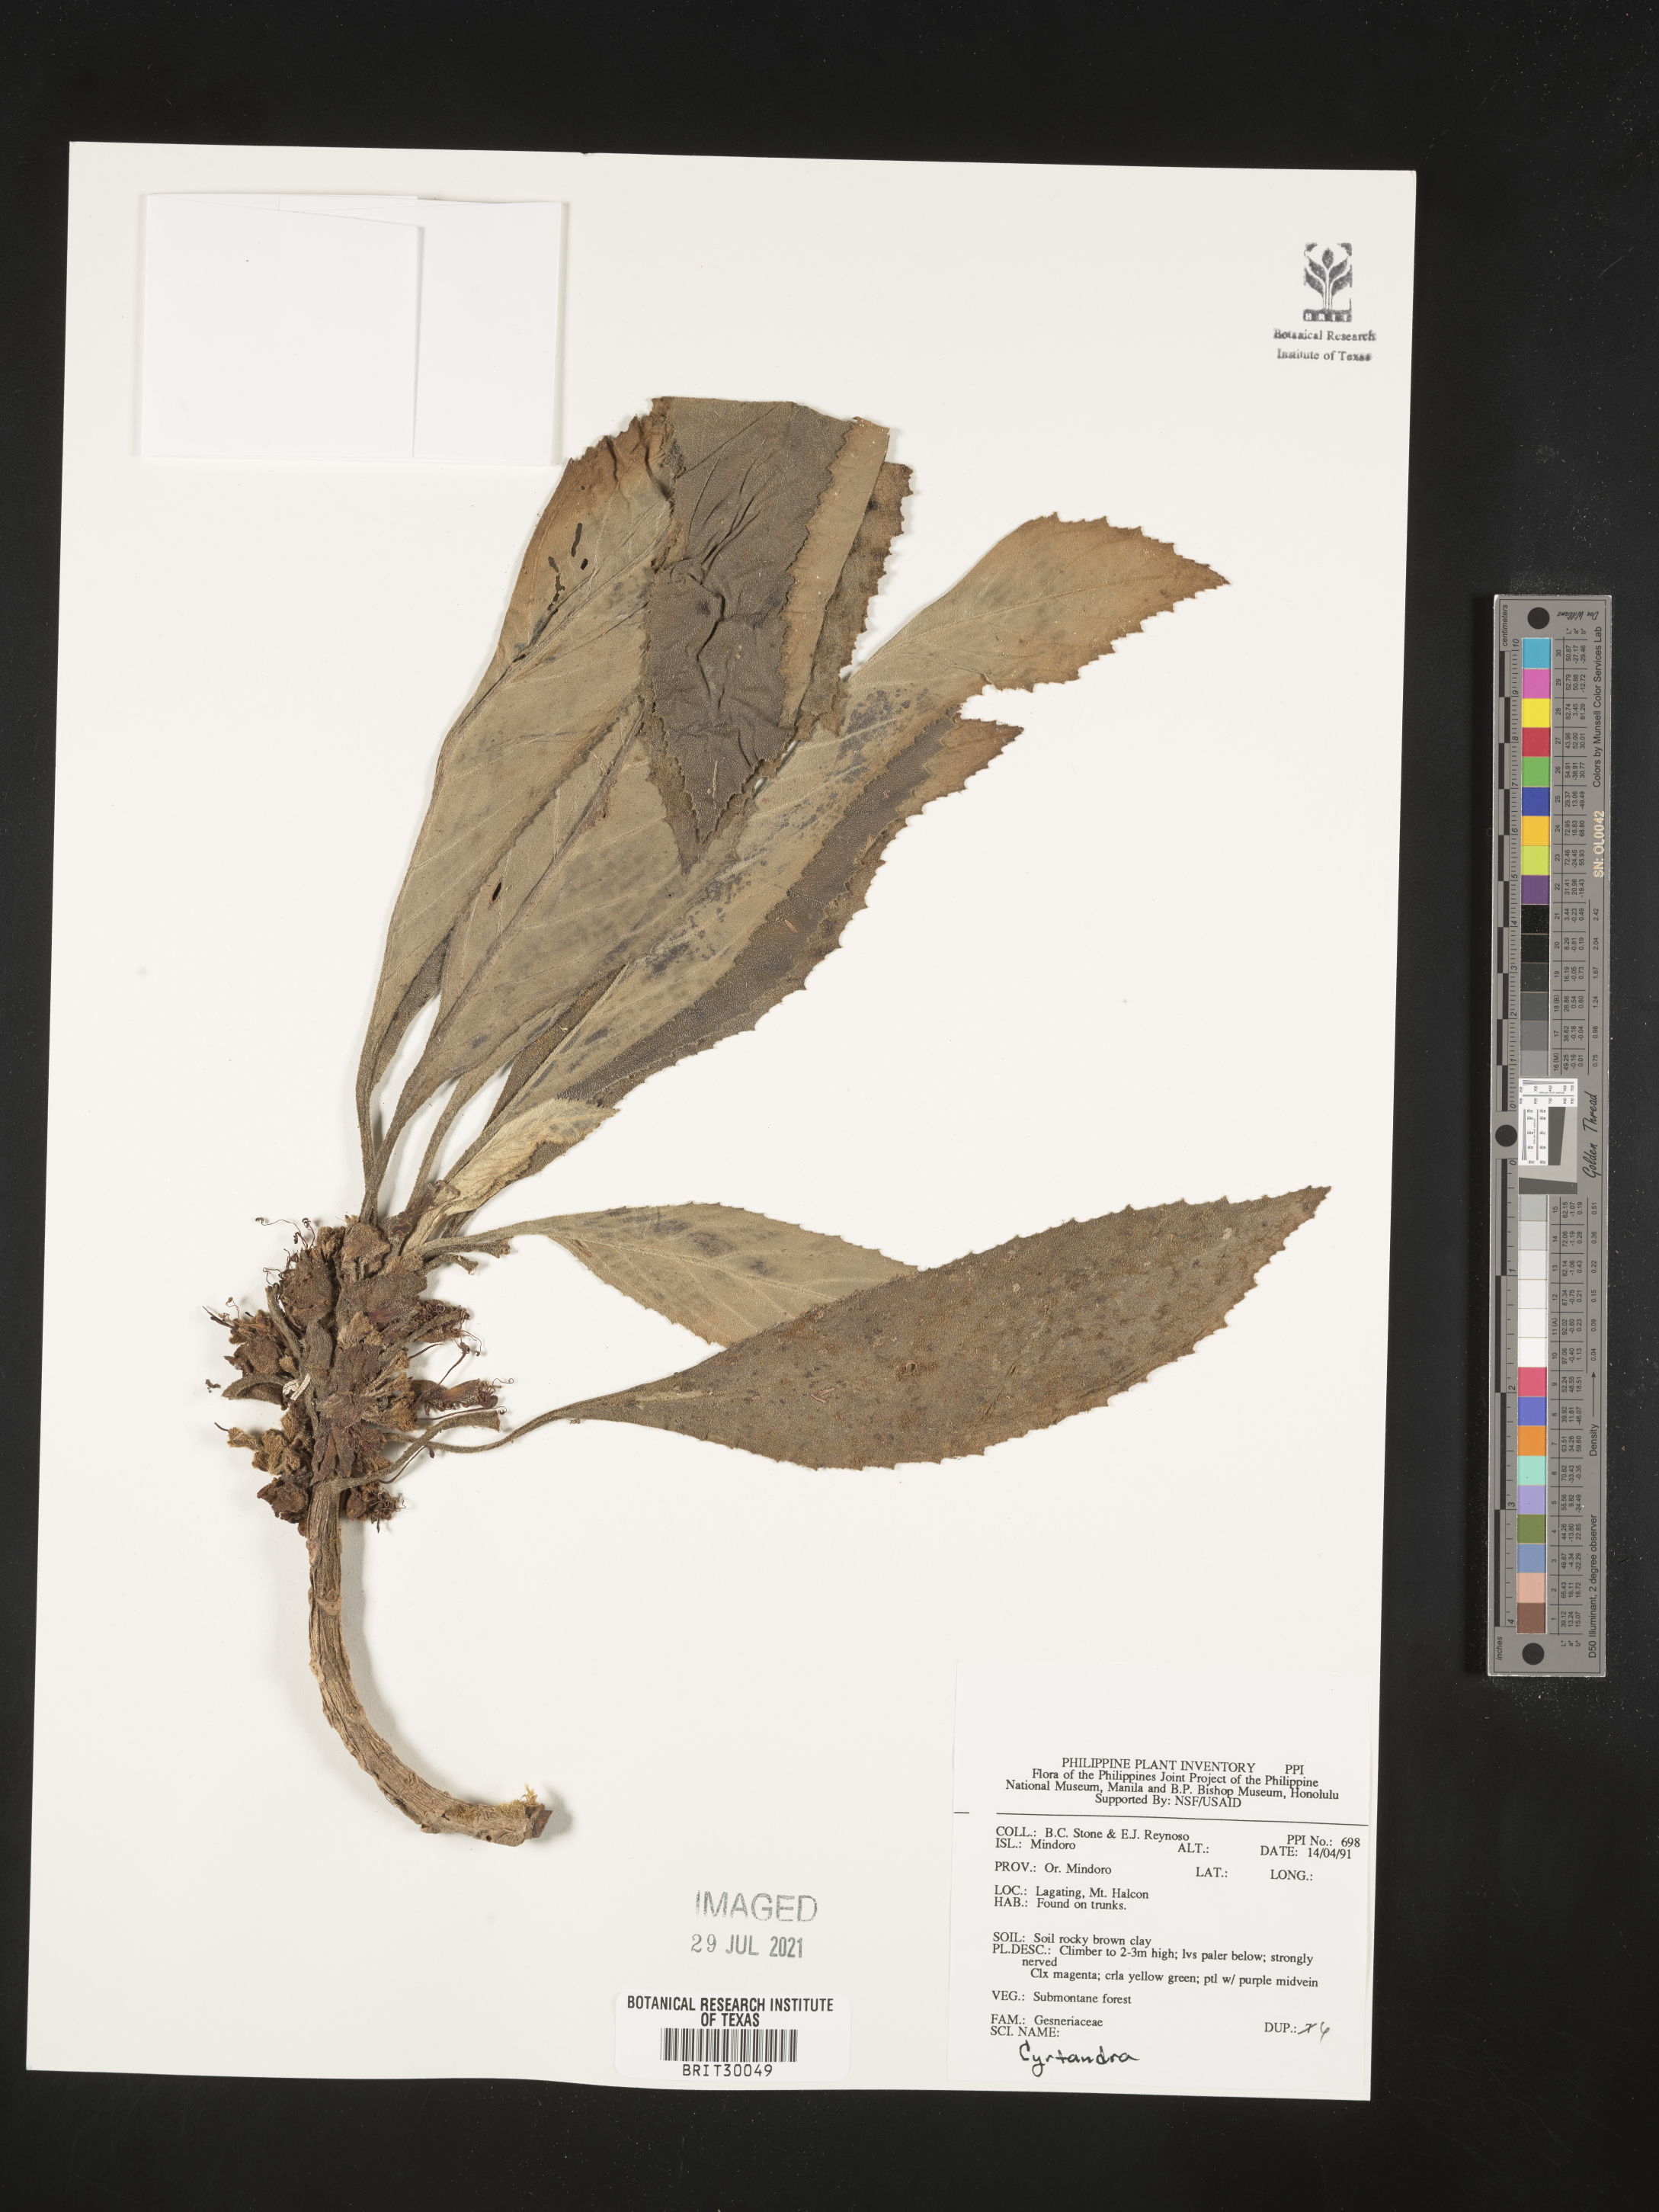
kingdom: Plantae
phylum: Tracheophyta
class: Magnoliopsida
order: Lamiales
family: Gesneriaceae
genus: Cyrtandra
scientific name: Cyrtandra
